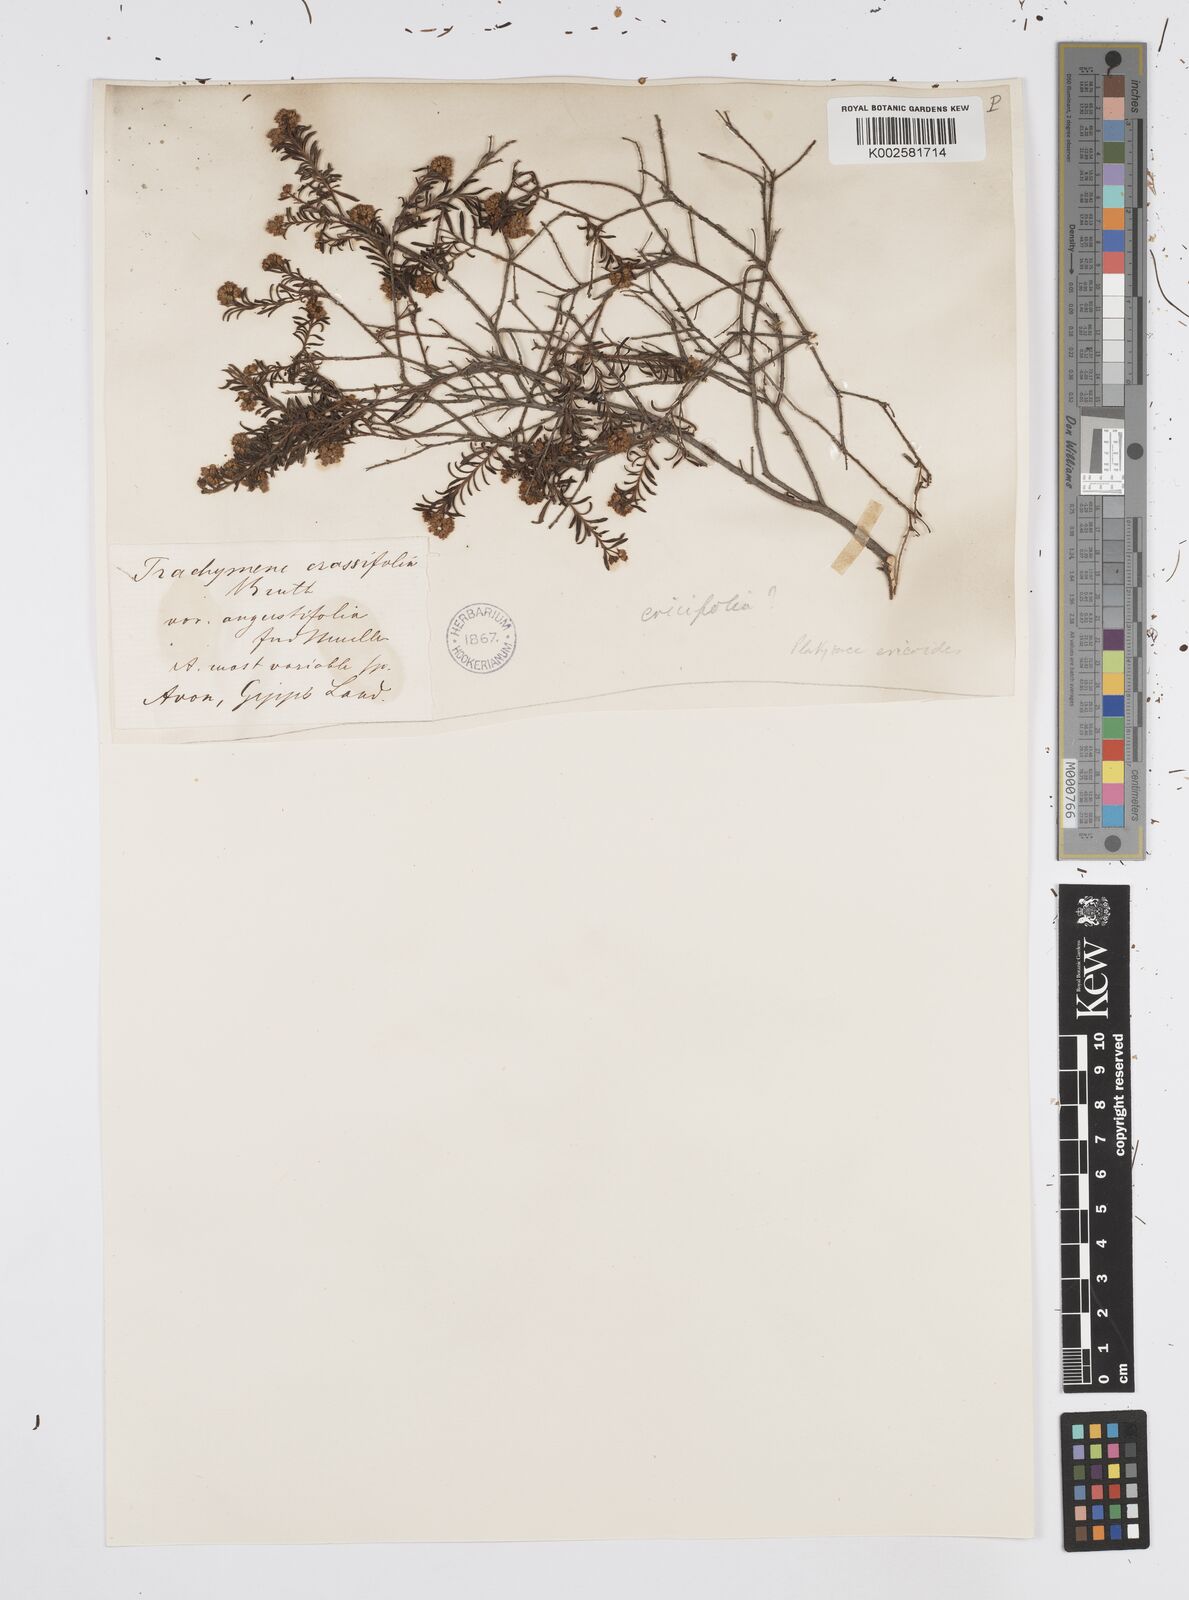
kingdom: Plantae
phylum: Tracheophyta
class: Magnoliopsida
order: Apiales
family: Apiaceae
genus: Platysace
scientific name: Platysace ericoides
